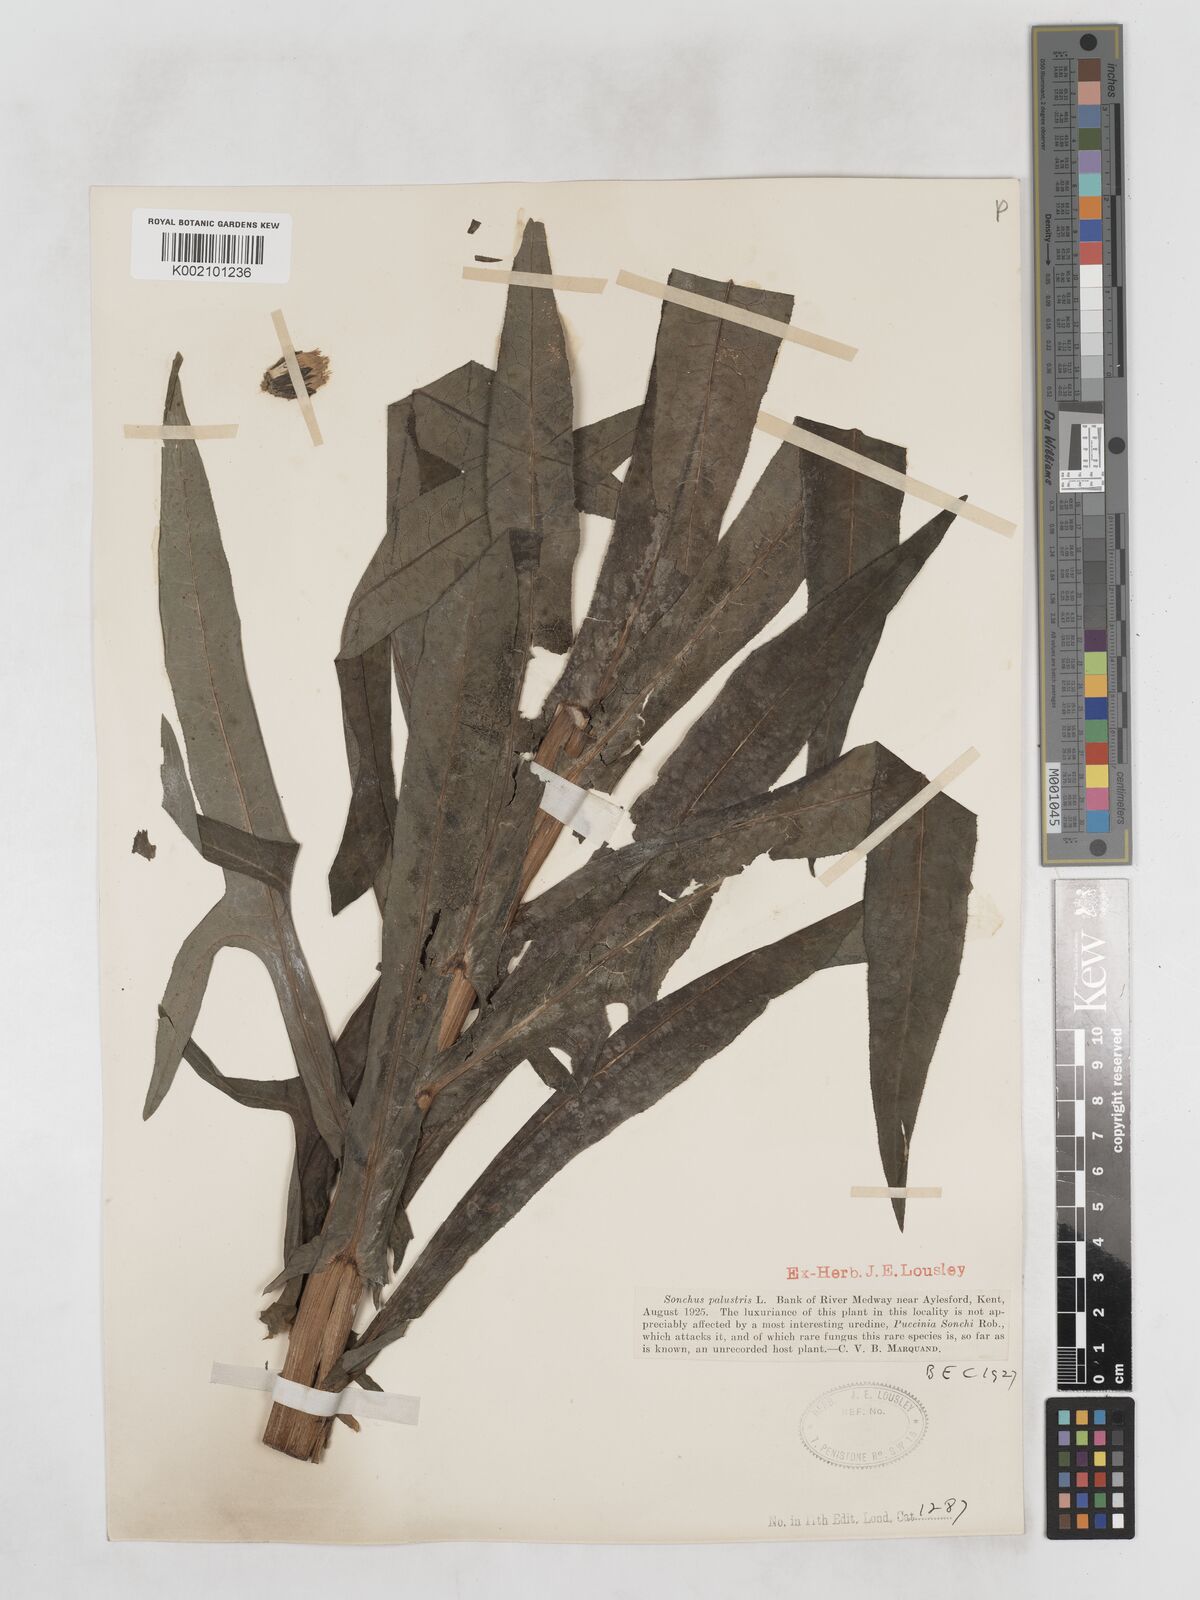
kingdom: Plantae
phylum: Tracheophyta
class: Magnoliopsida
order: Asterales
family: Asteraceae
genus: Sonchus
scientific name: Sonchus palustris
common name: Marsh sow-thistle
